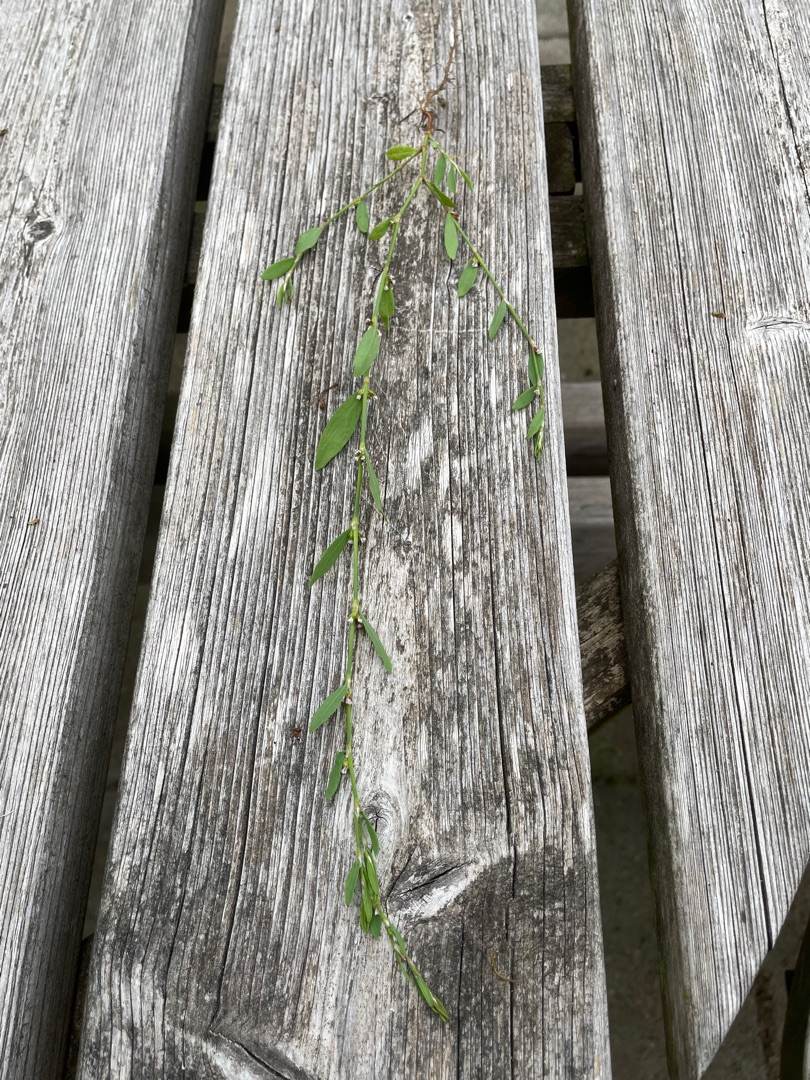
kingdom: Plantae
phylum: Tracheophyta
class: Magnoliopsida
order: Caryophyllales
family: Polygonaceae
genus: Polygonum
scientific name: Polygonum aviculare
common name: Vej-pileurt
